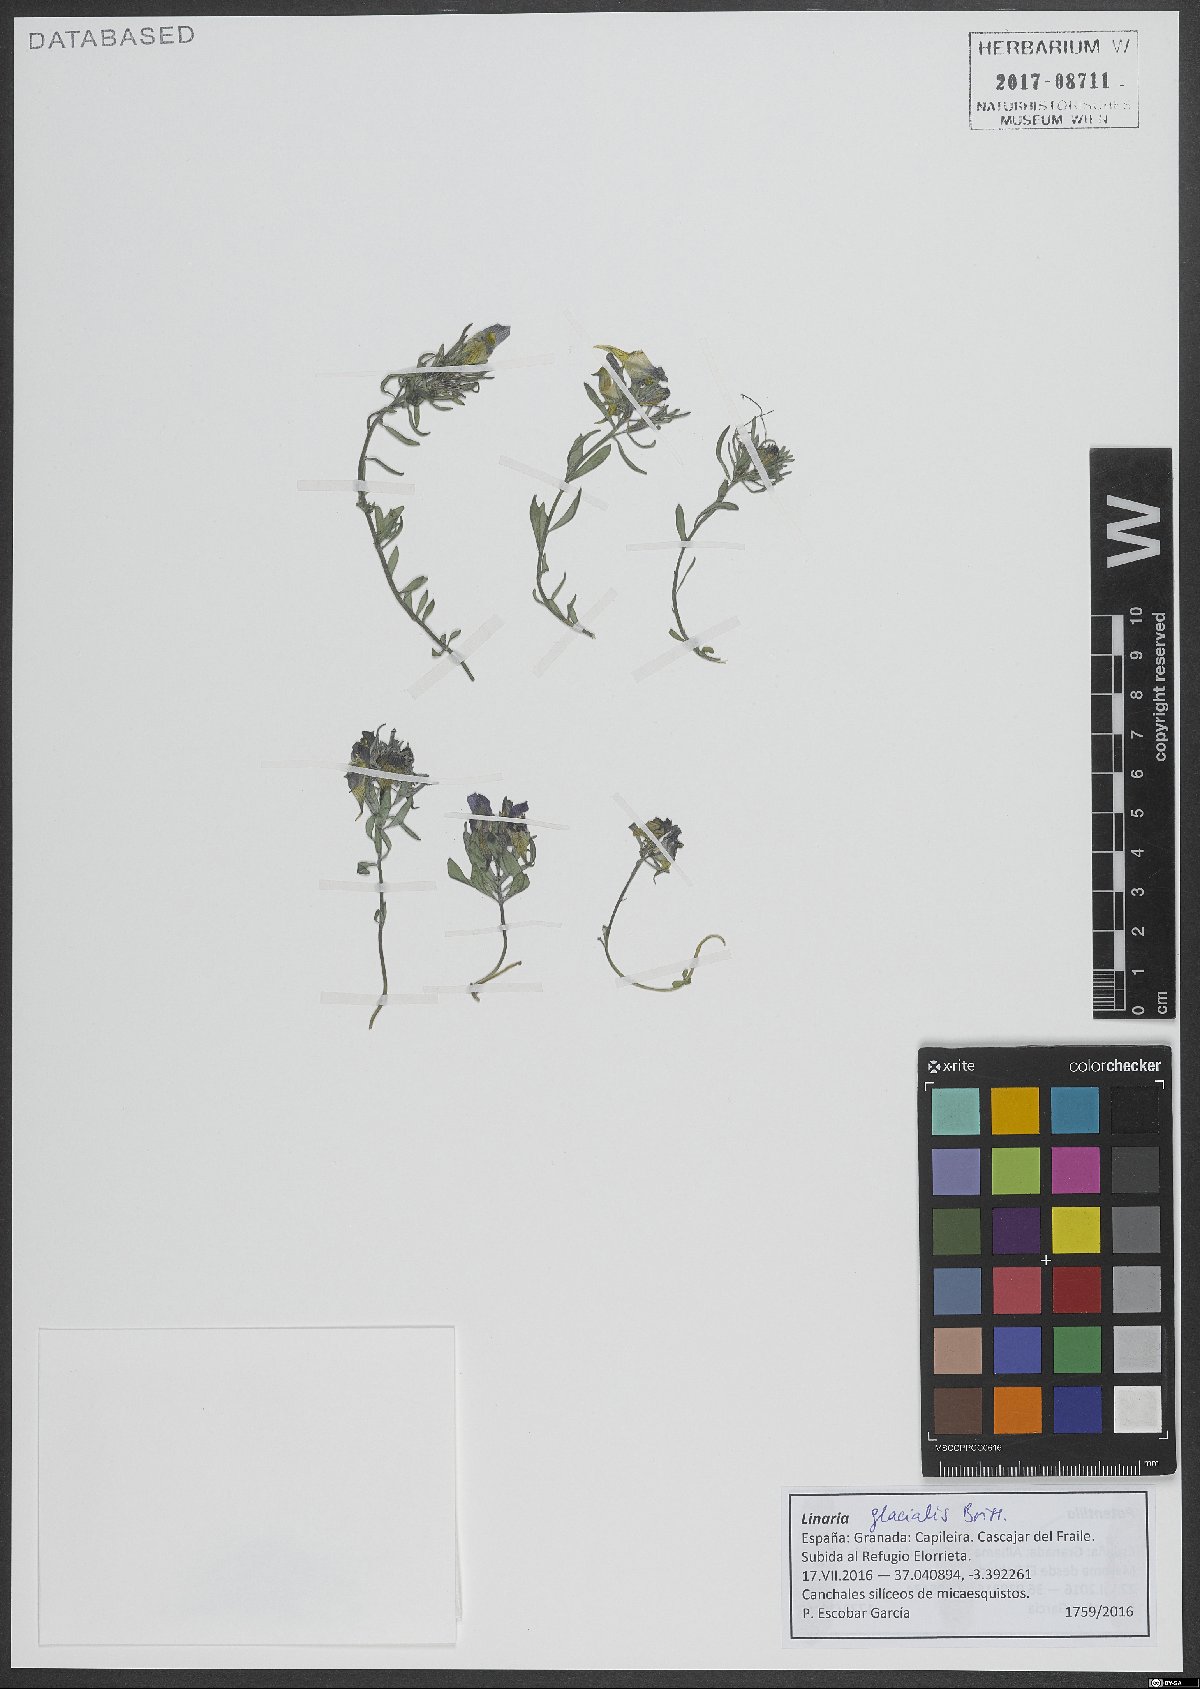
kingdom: Plantae
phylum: Tracheophyta
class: Magnoliopsida
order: Lamiales
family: Plantaginaceae
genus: Linaria
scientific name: Linaria glacialis
